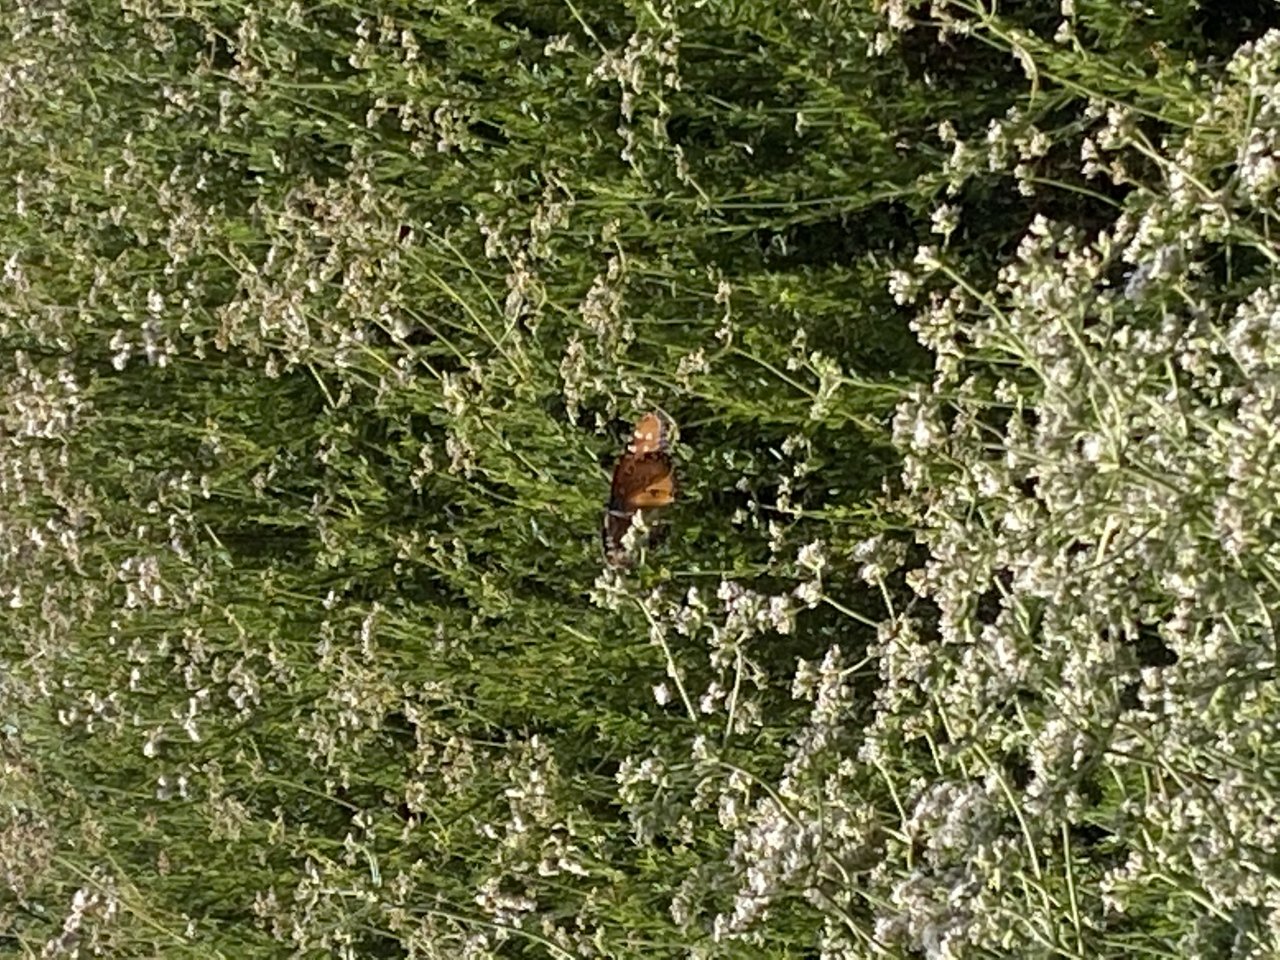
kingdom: Animalia
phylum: Arthropoda
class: Insecta
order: Lepidoptera
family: Nymphalidae
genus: Danaus
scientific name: Danaus gilippus
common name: Queen
